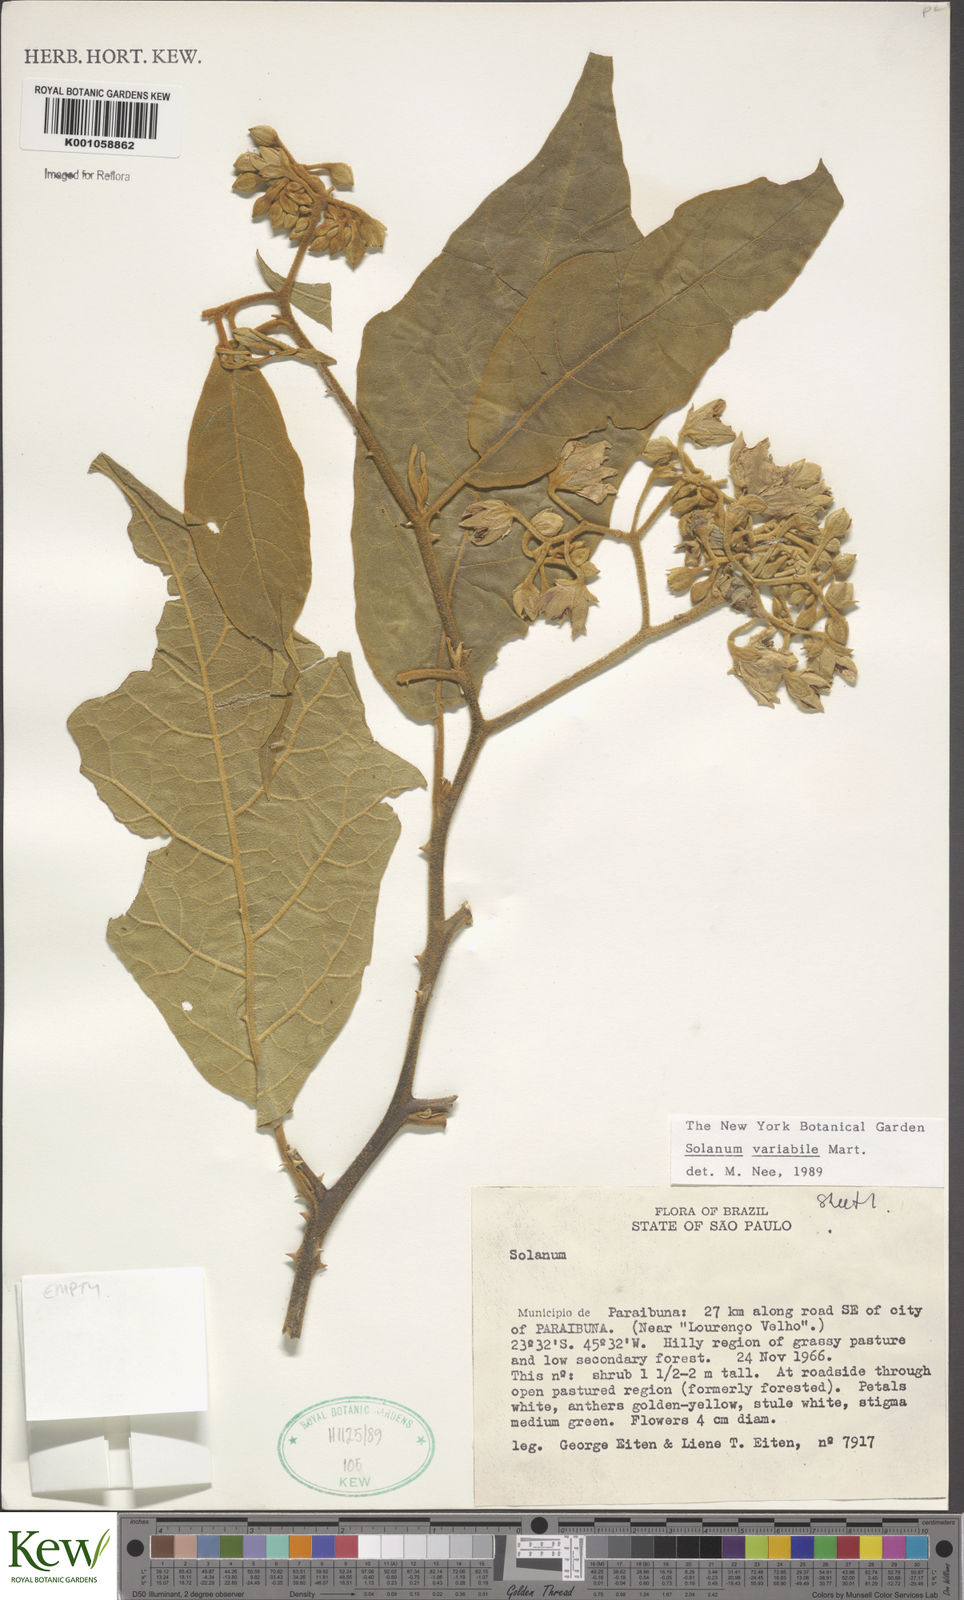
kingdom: Plantae
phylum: Tracheophyta
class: Magnoliopsida
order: Solanales
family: Solanaceae
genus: Solanum
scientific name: Solanum variabile
